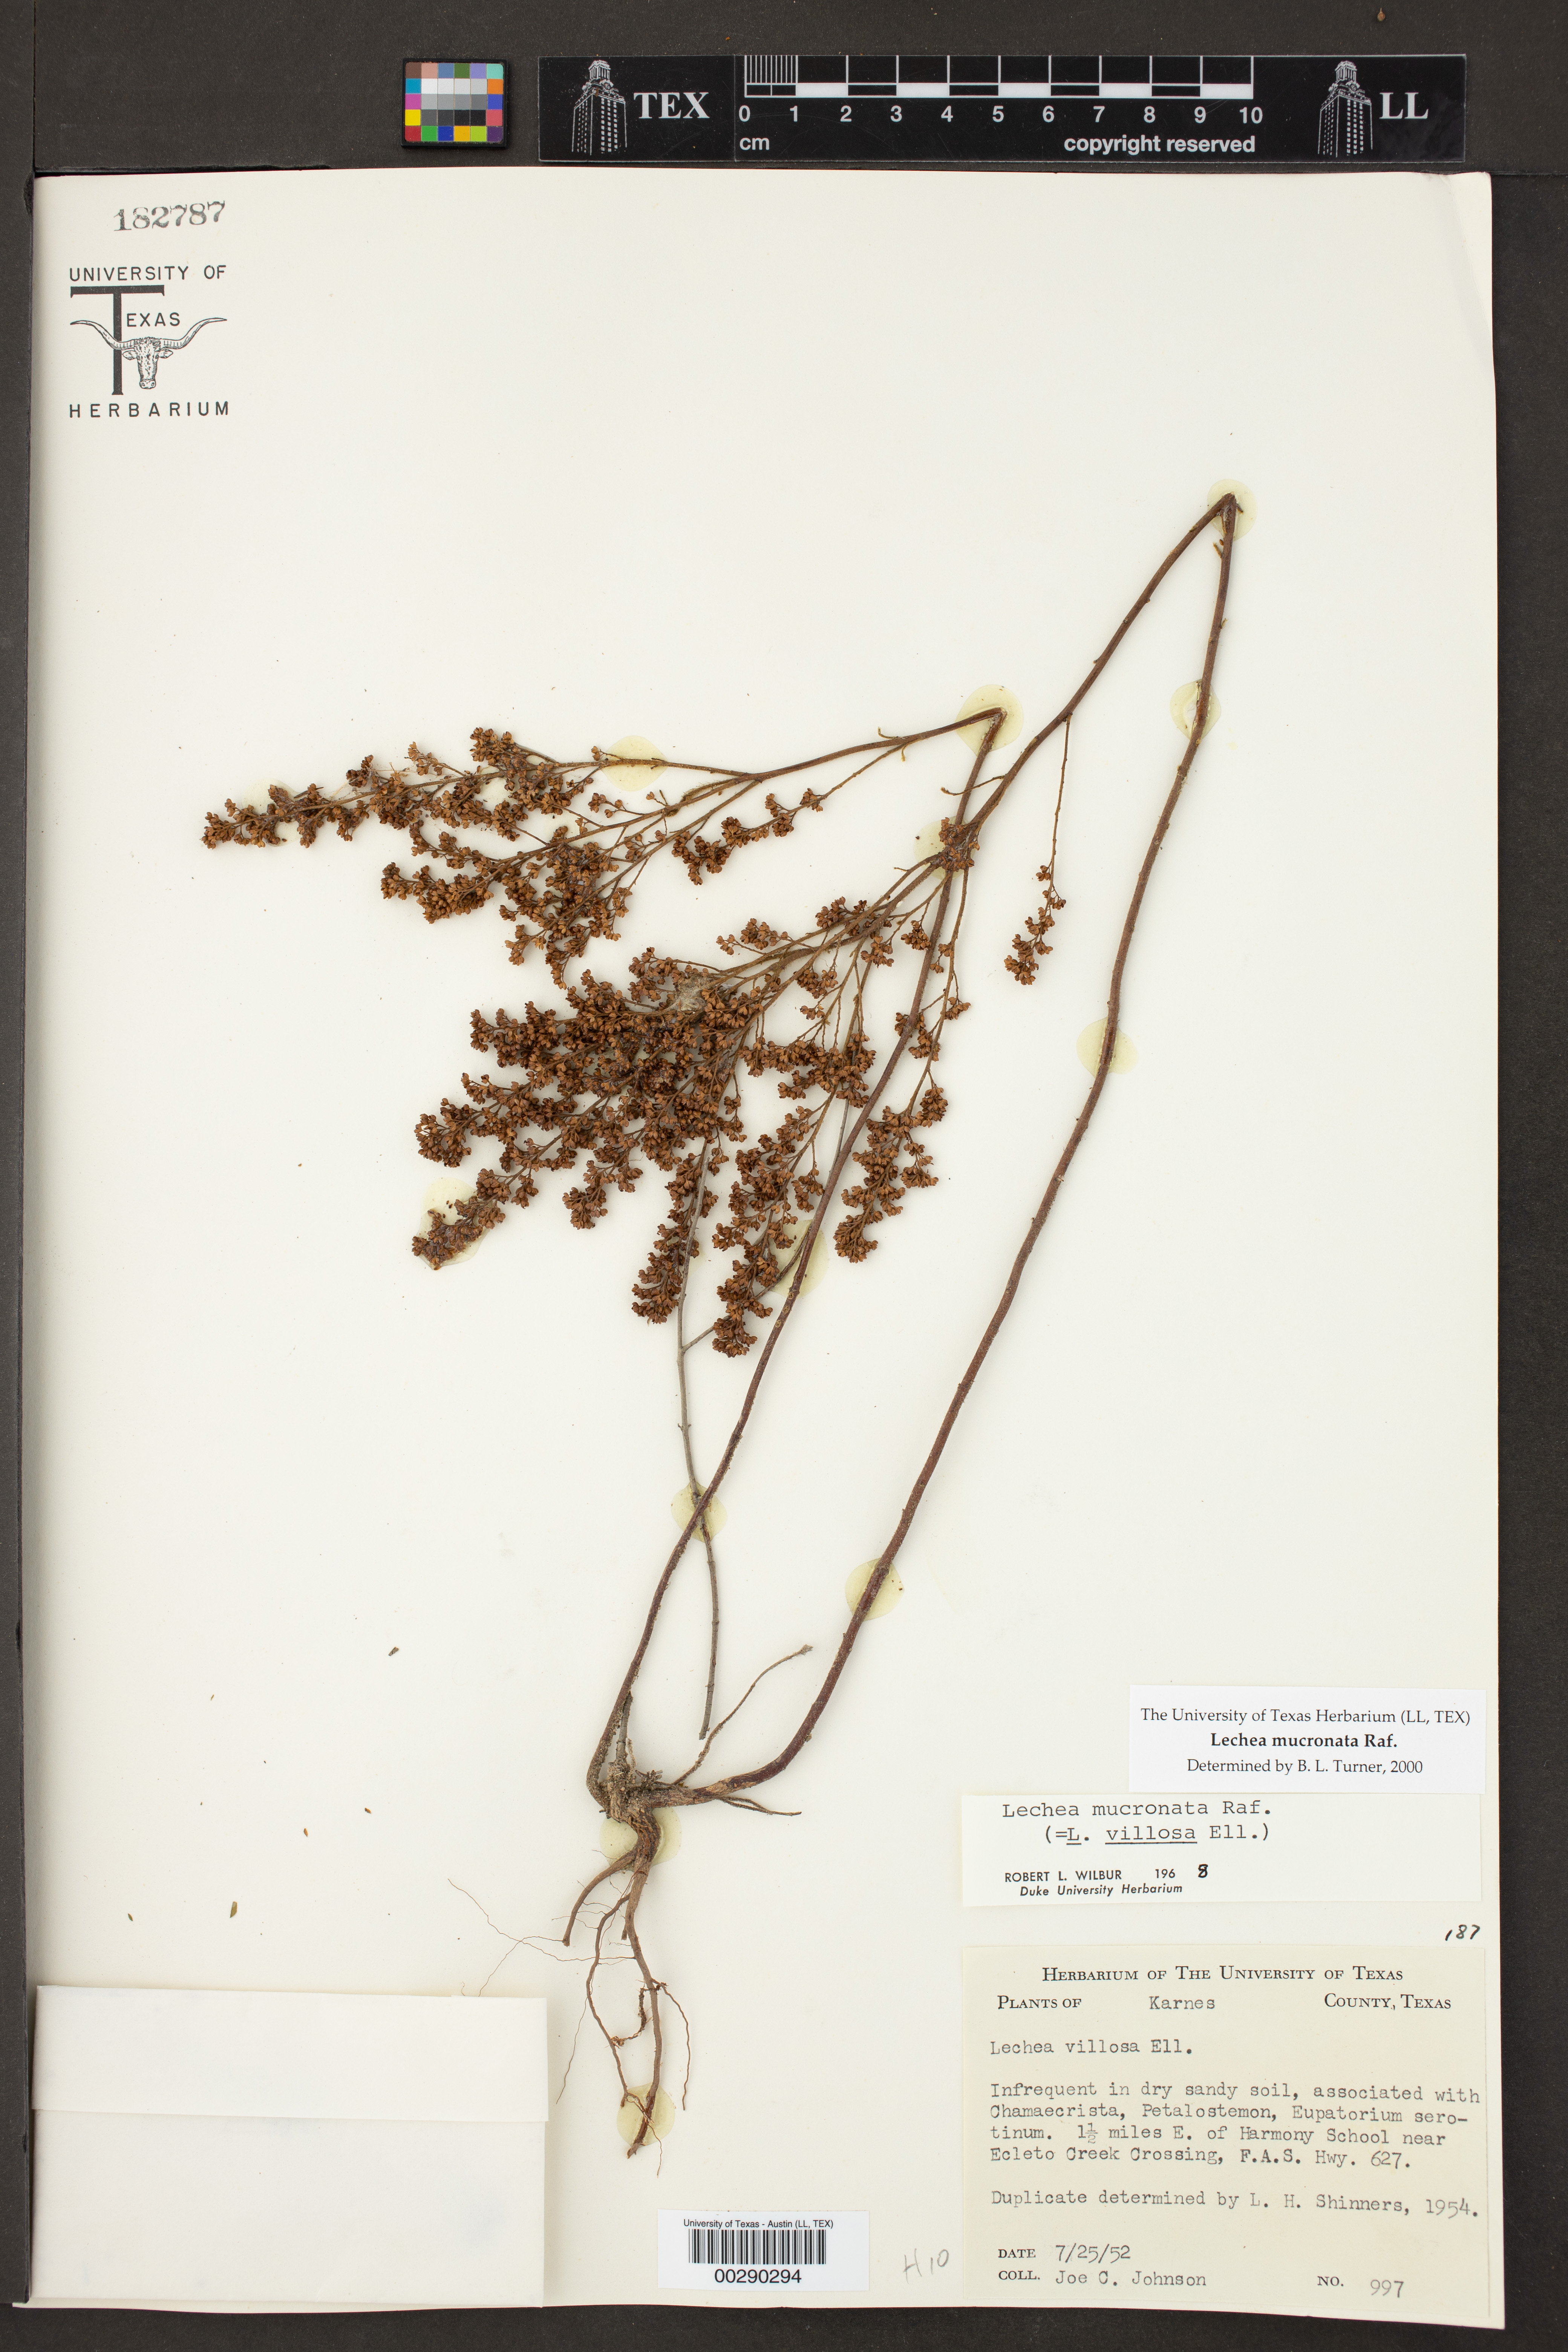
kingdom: Plantae
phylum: Tracheophyta
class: Magnoliopsida
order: Malvales
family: Cistaceae
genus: Lechea
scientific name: Lechea mucronata
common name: Hairy pinweed
